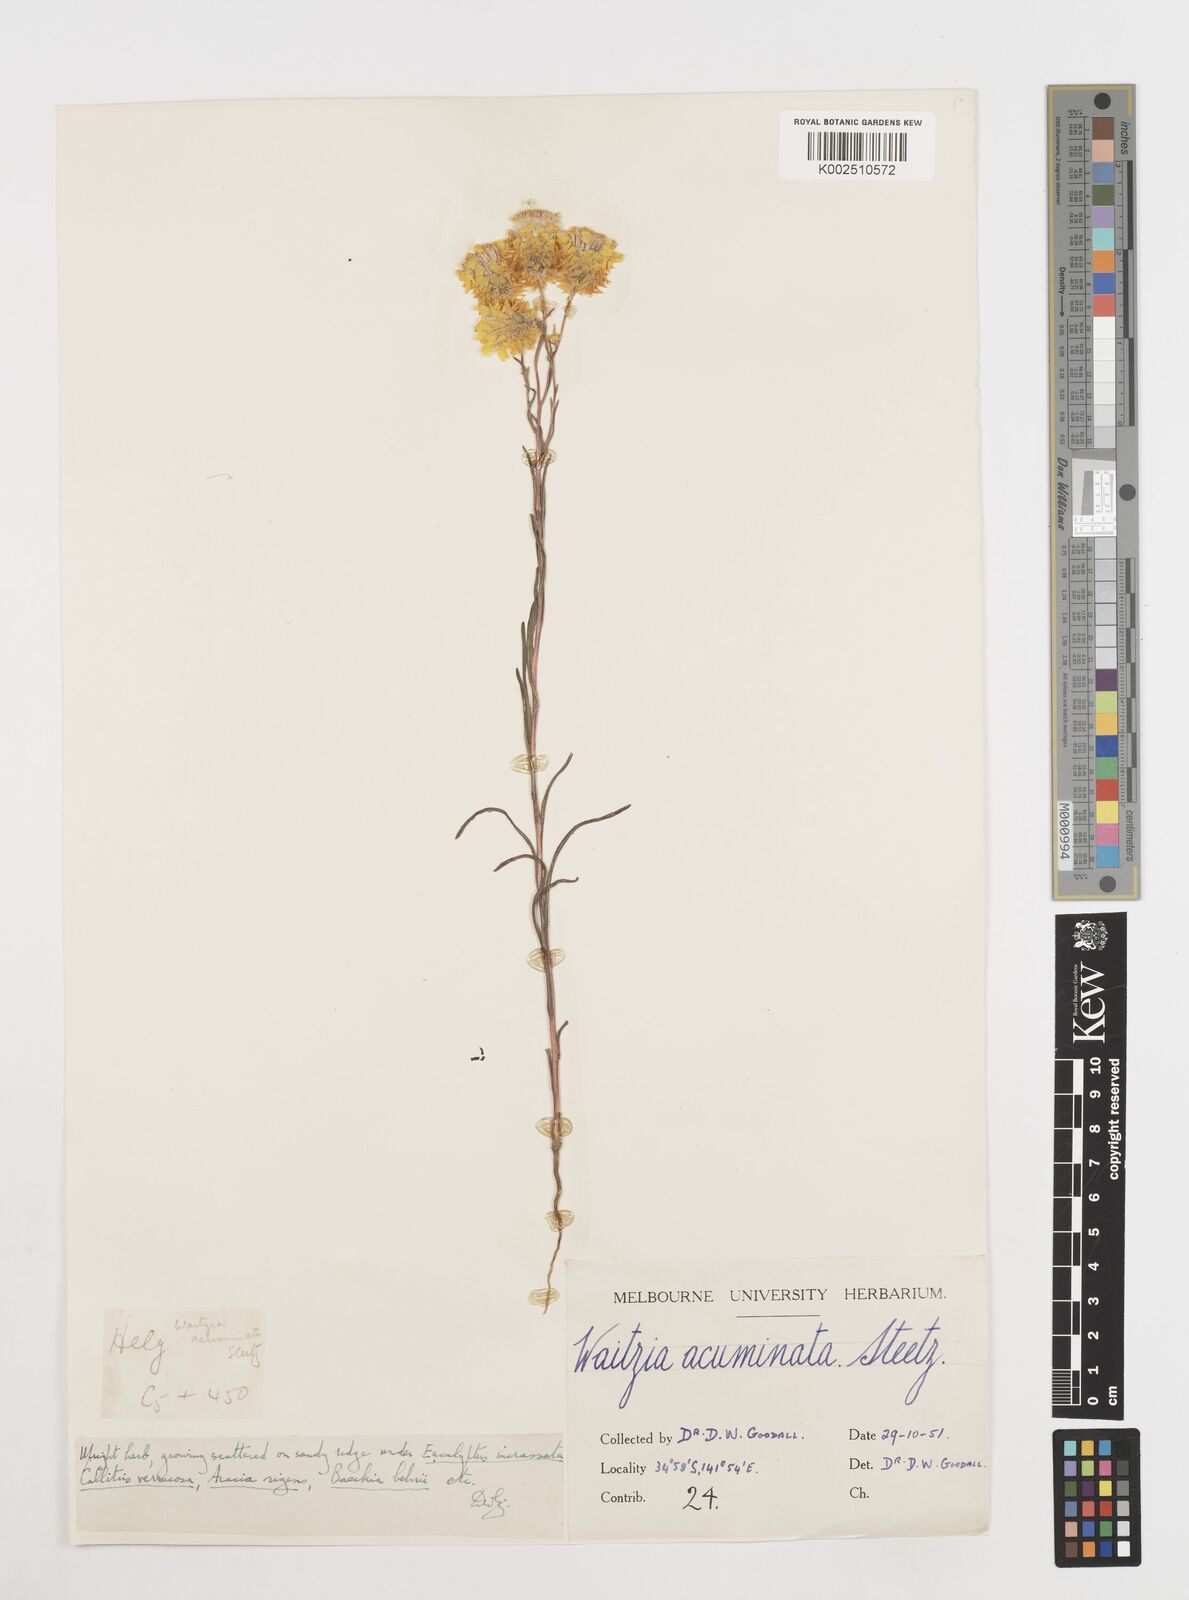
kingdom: Plantae
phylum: Tracheophyta
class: Magnoliopsida
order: Asterales
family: Asteraceae
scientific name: Asteraceae
